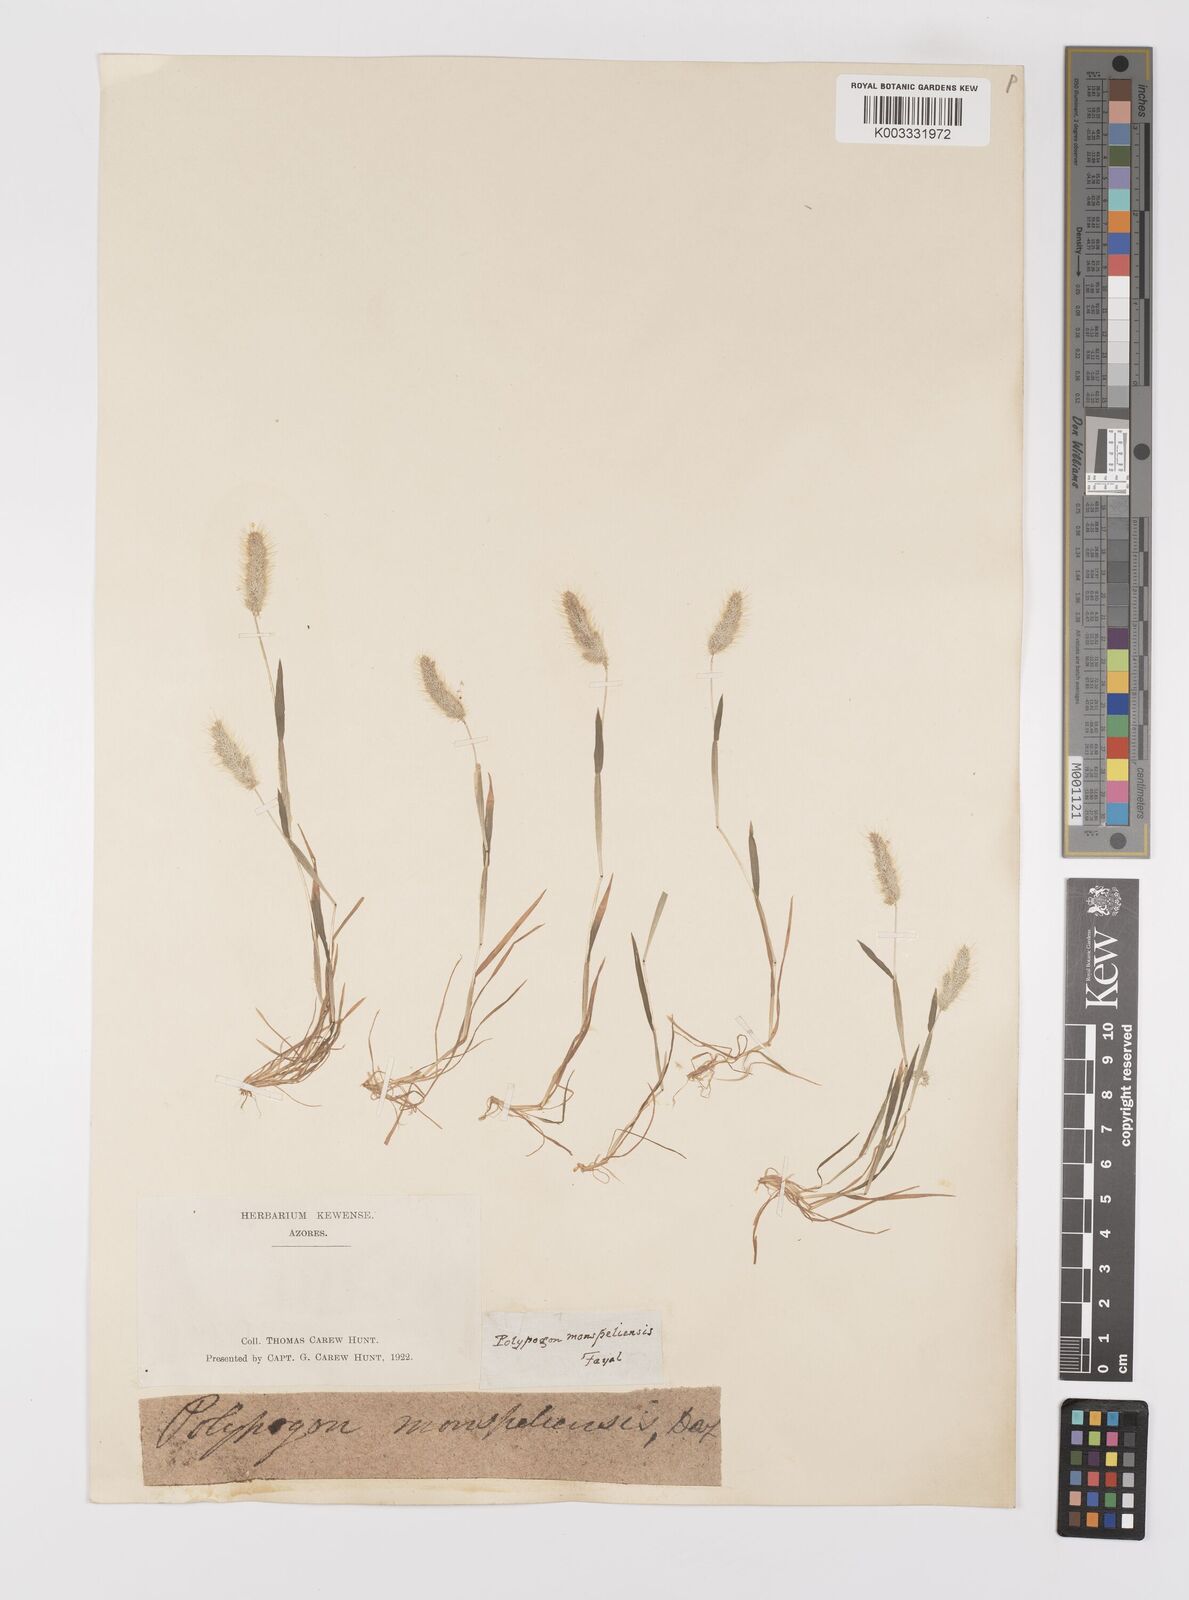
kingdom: Plantae
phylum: Tracheophyta
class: Liliopsida
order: Poales
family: Poaceae
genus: Polypogon
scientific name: Polypogon maritimus
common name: Mediterranean rabbitsfoot grass
